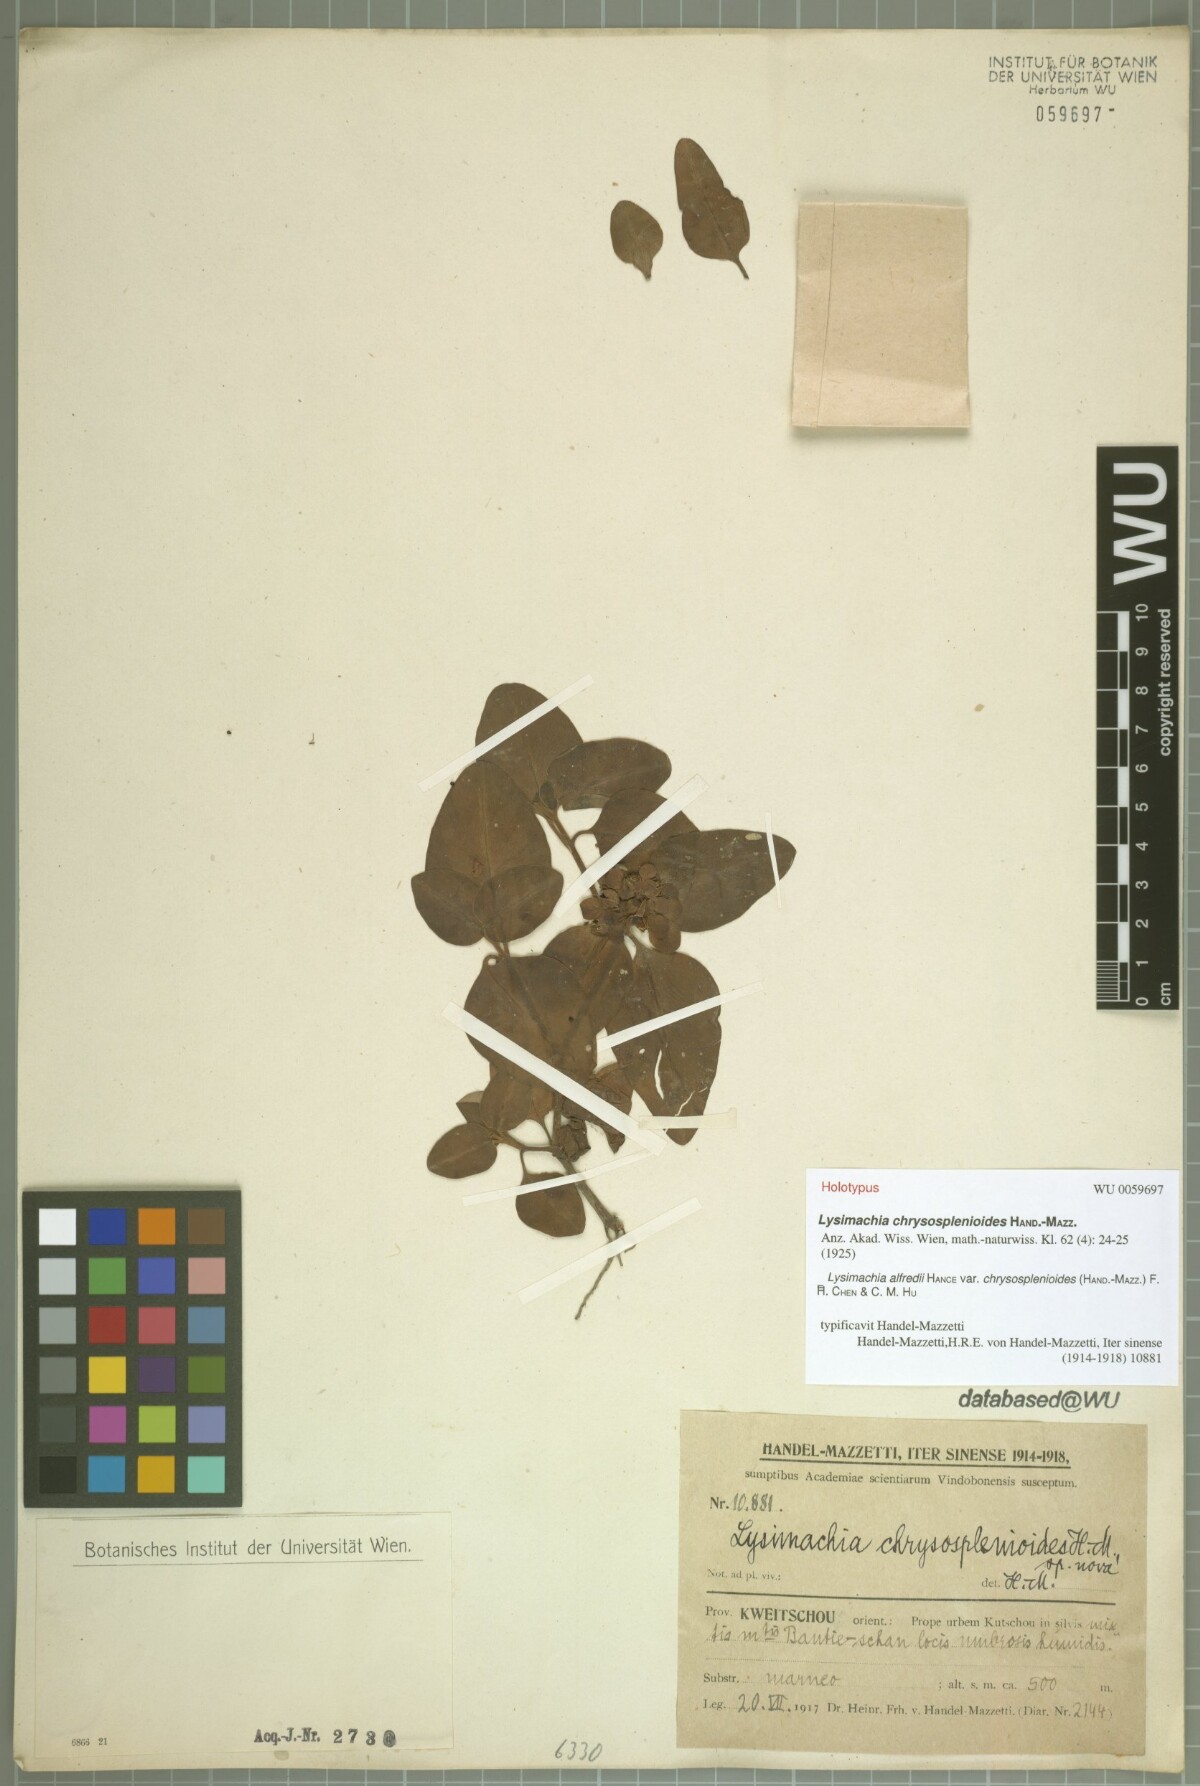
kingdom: Plantae
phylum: Tracheophyta
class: Magnoliopsida
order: Ericales
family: Primulaceae
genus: Lysimachia
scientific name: Lysimachia alfredi
